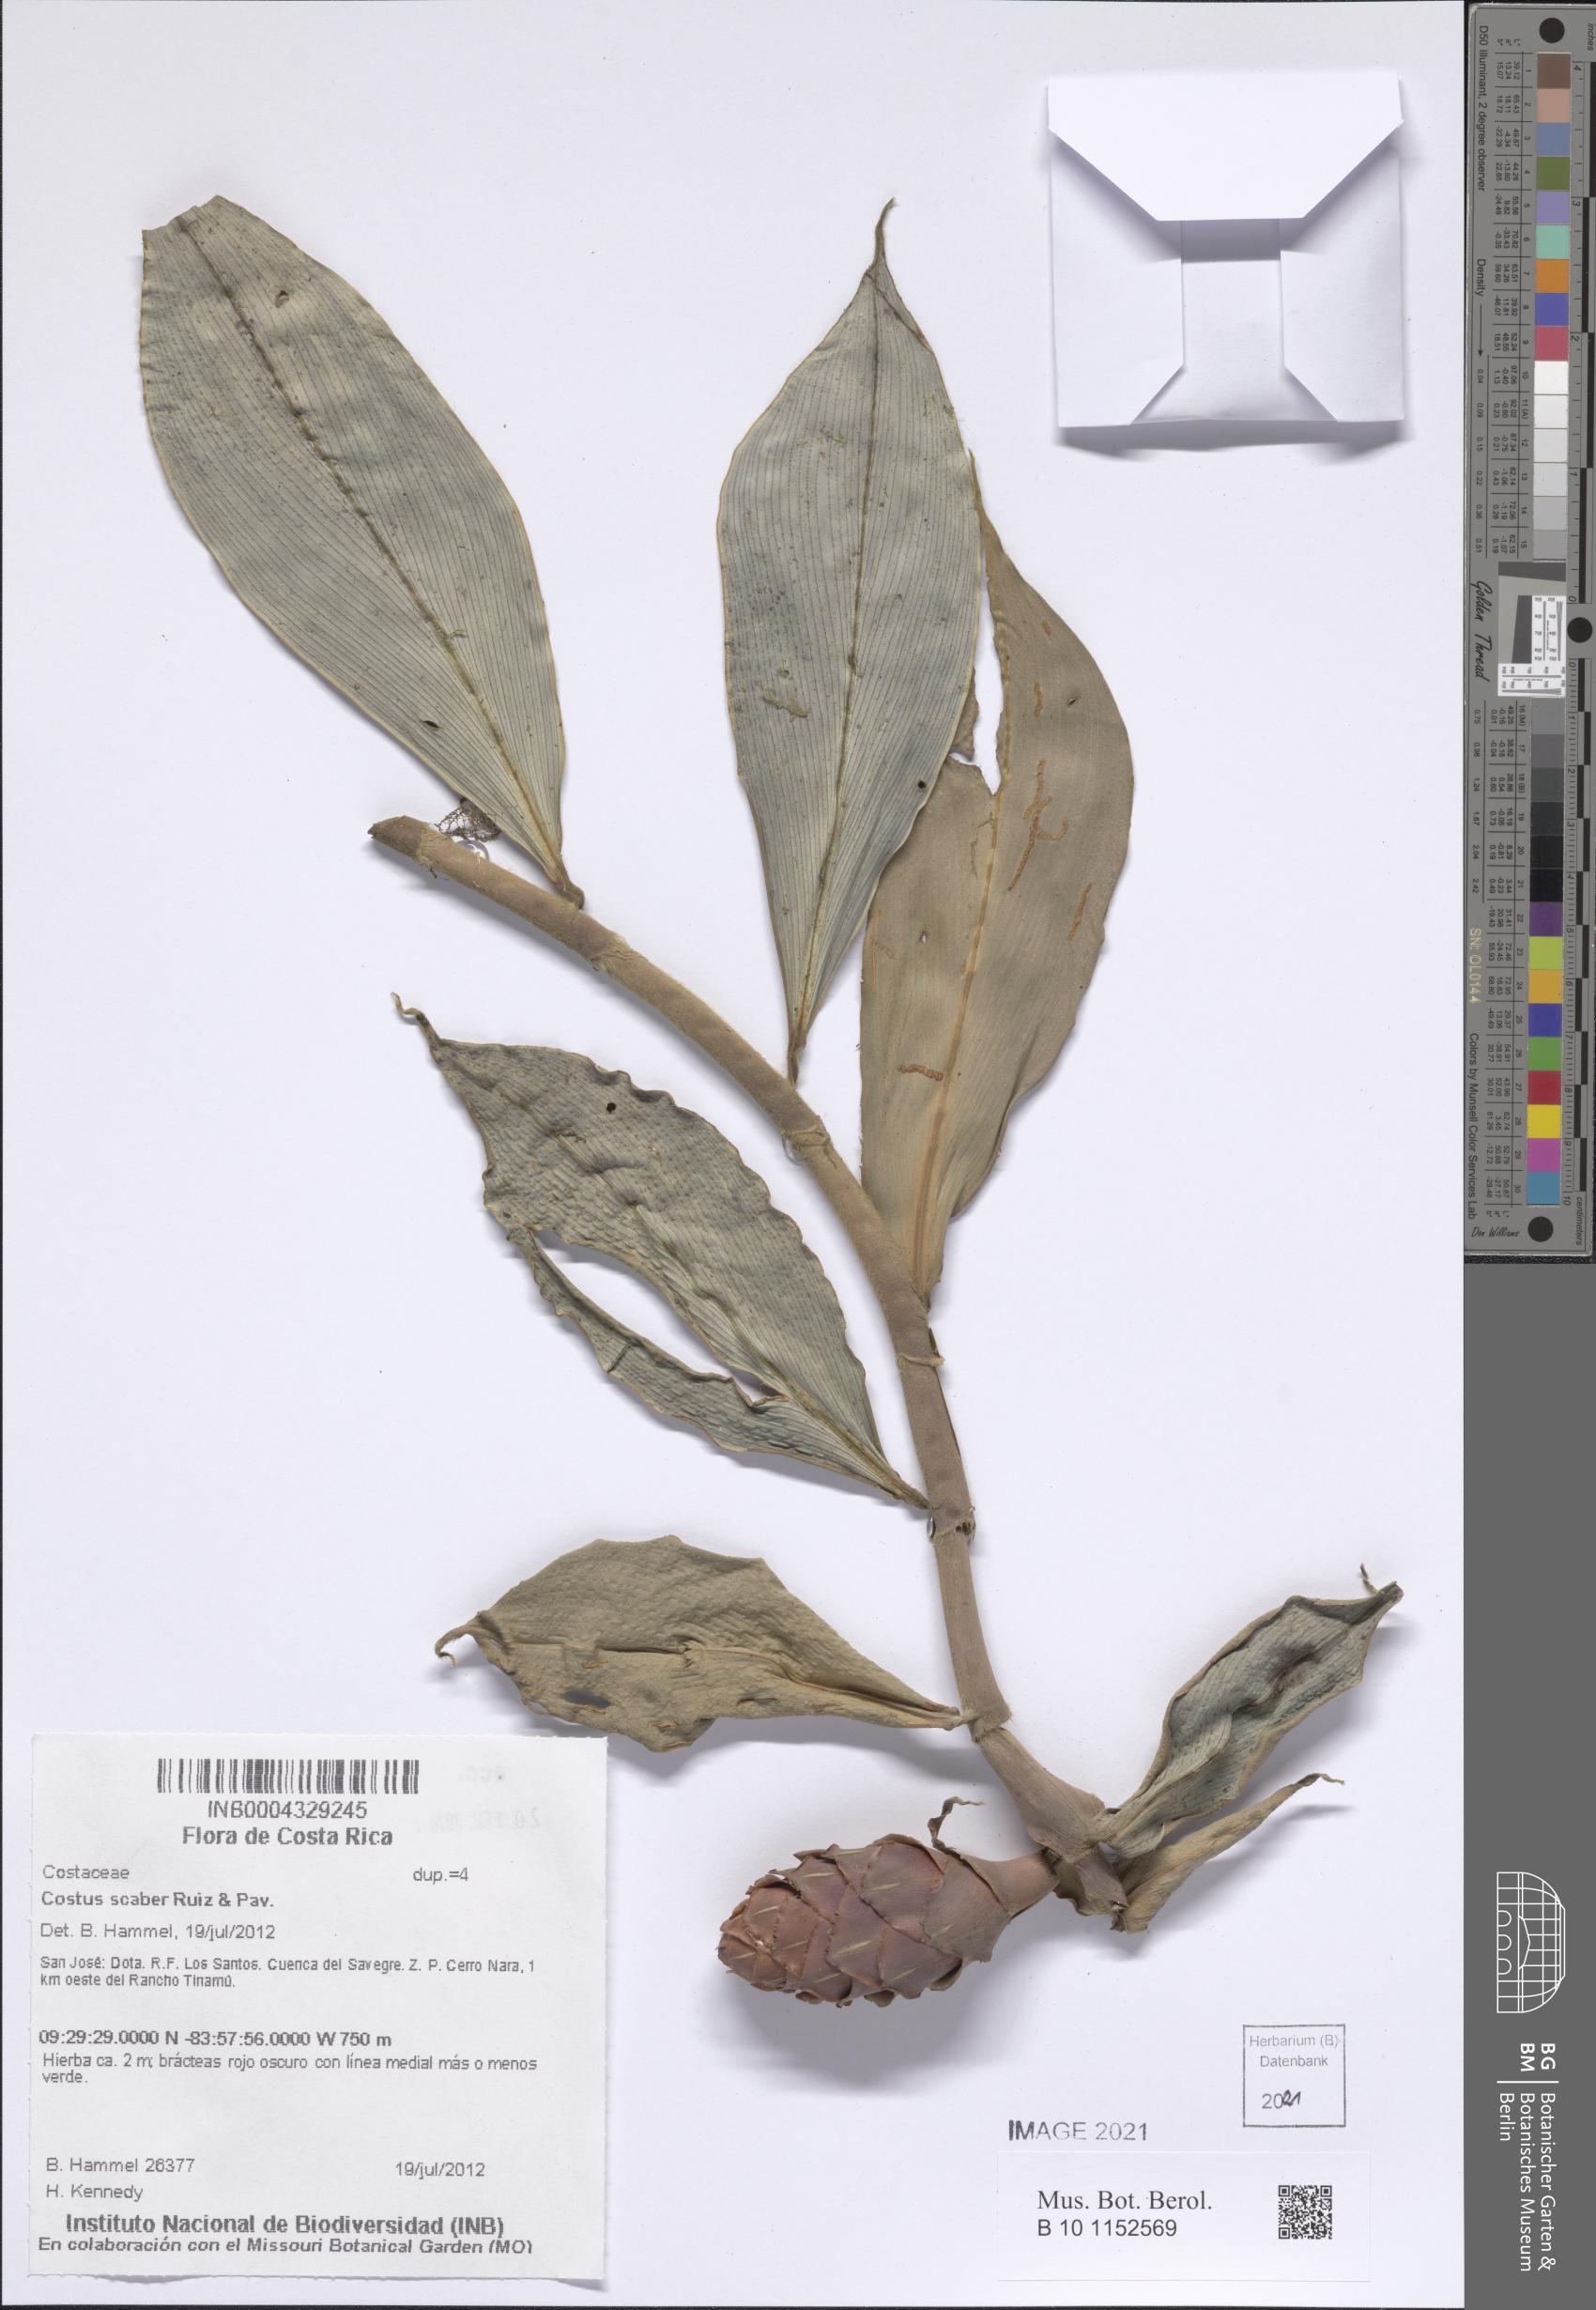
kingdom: Plantae
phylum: Tracheophyta
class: Liliopsida
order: Zingiberales
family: Costaceae
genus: Costus
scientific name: Costus scaber
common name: Spiral head ginger
